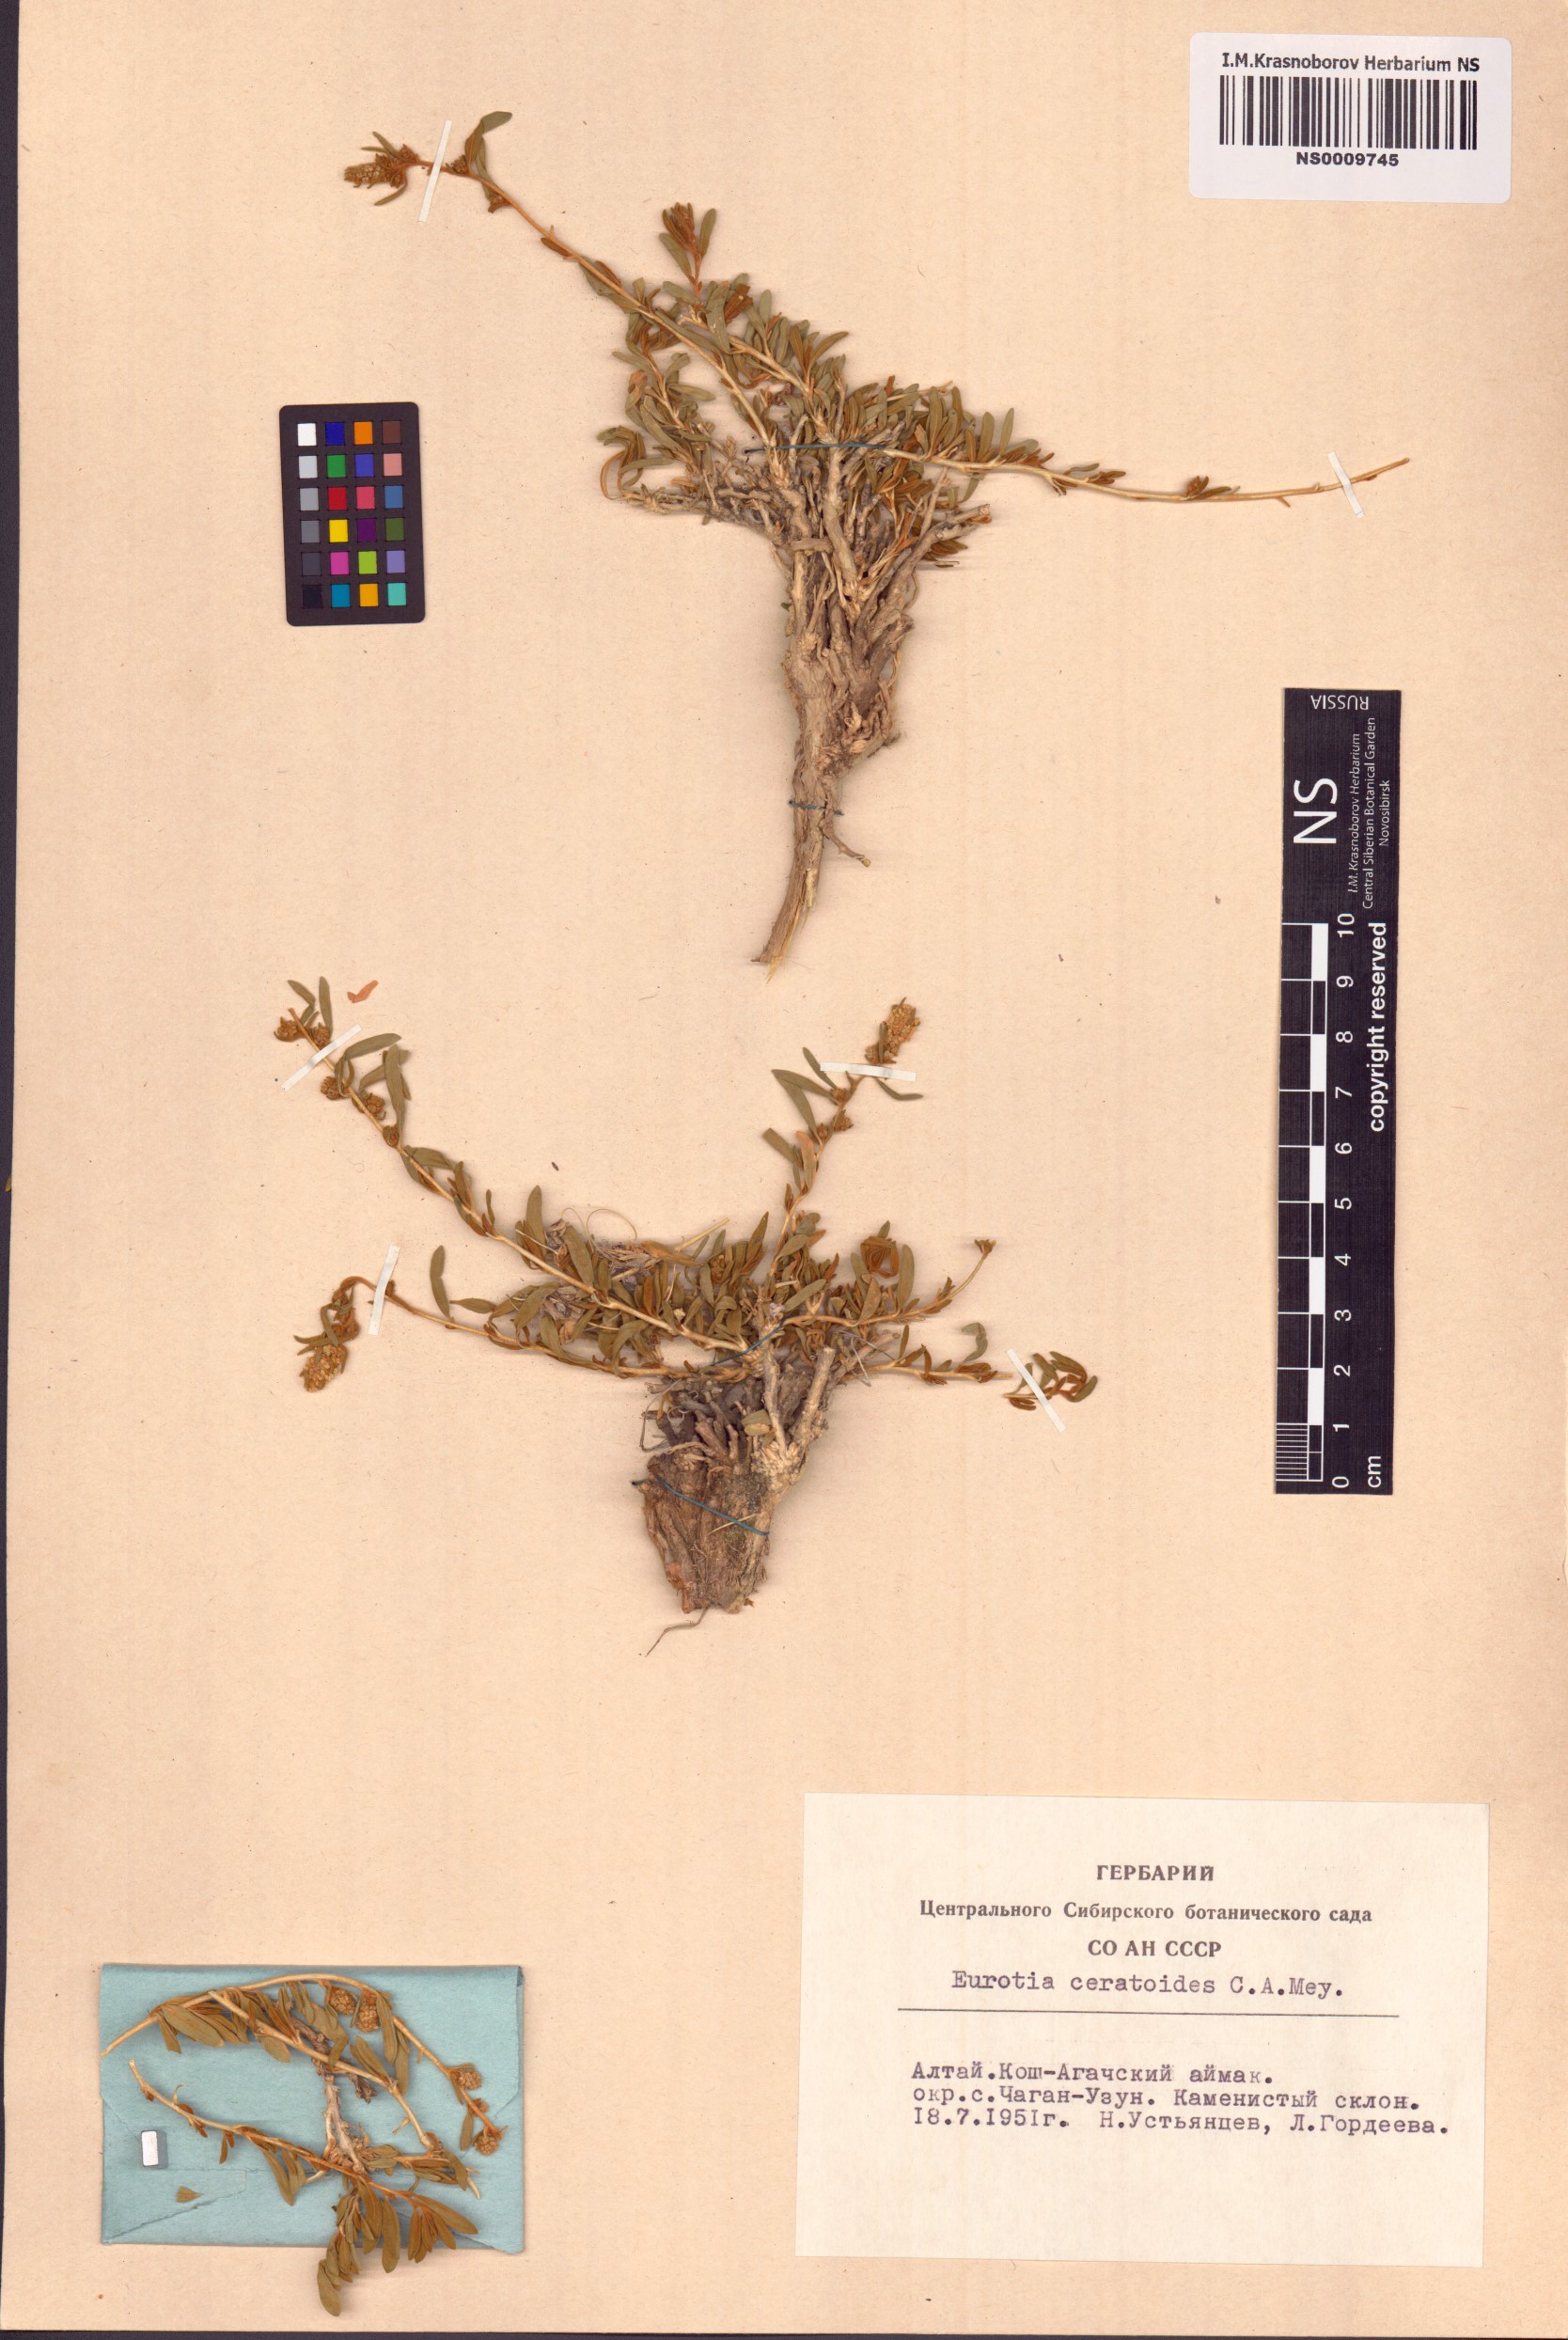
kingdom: Plantae
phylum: Tracheophyta
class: Magnoliopsida
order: Caryophyllales
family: Amaranthaceae
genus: Krascheninnikovia
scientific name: Krascheninnikovia ceratoides
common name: Pamirian winterfat
